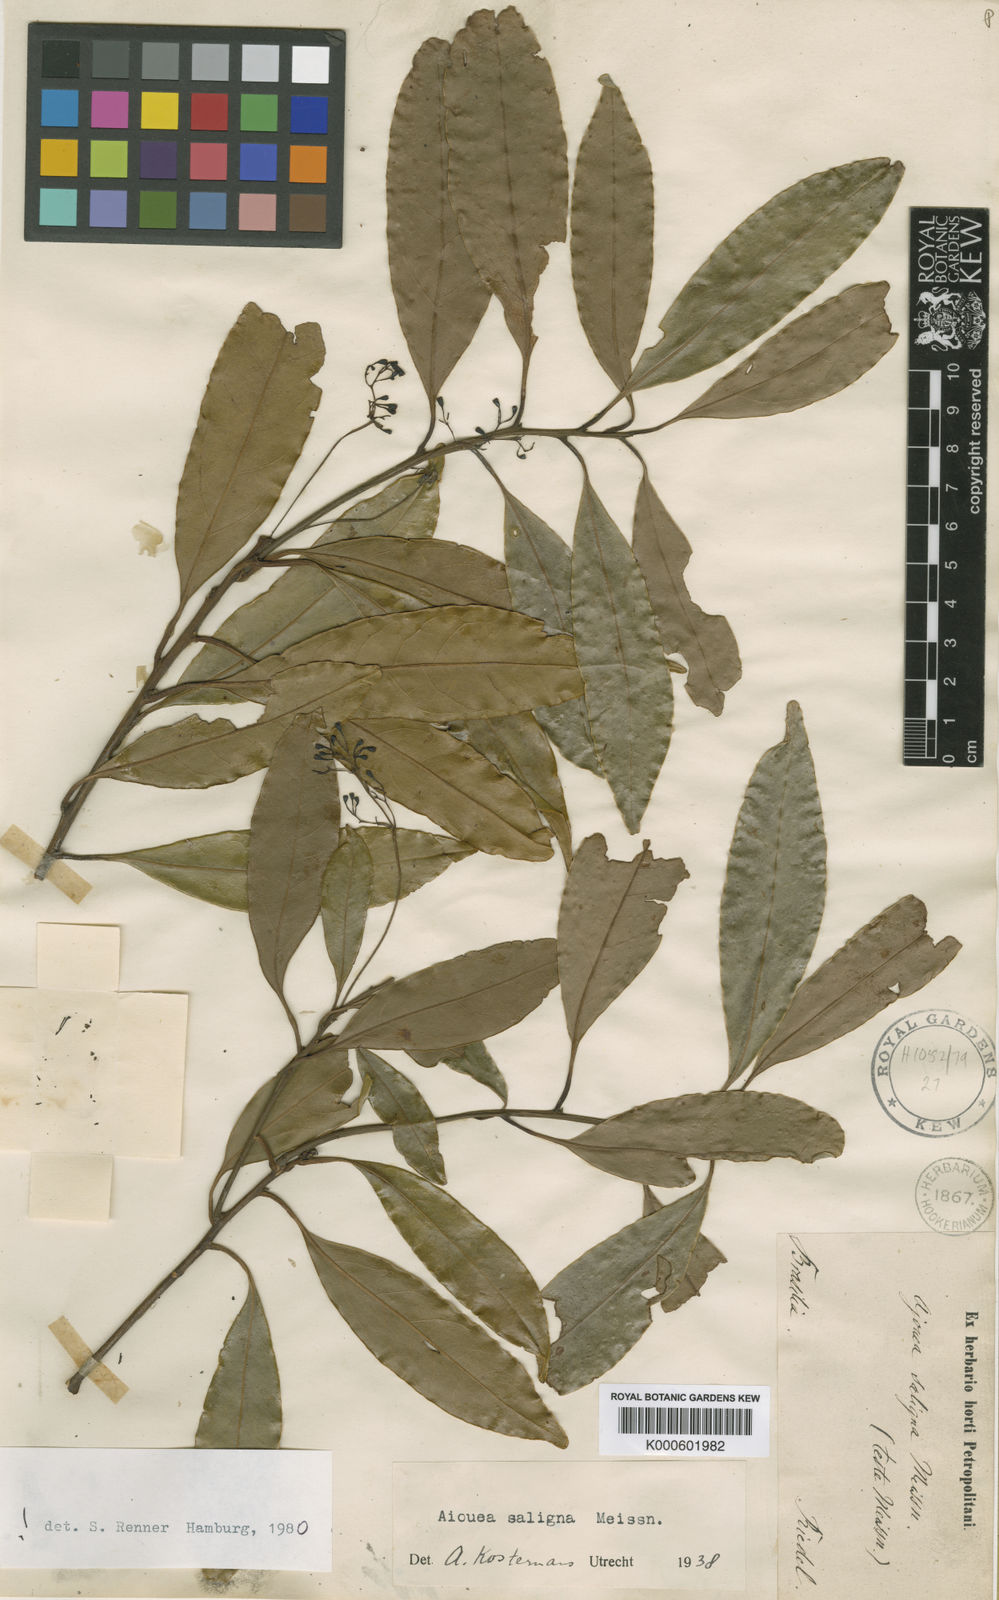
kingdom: Plantae
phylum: Tracheophyta
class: Magnoliopsida
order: Laurales
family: Lauraceae
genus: Aiouea
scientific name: Aiouea saligna
